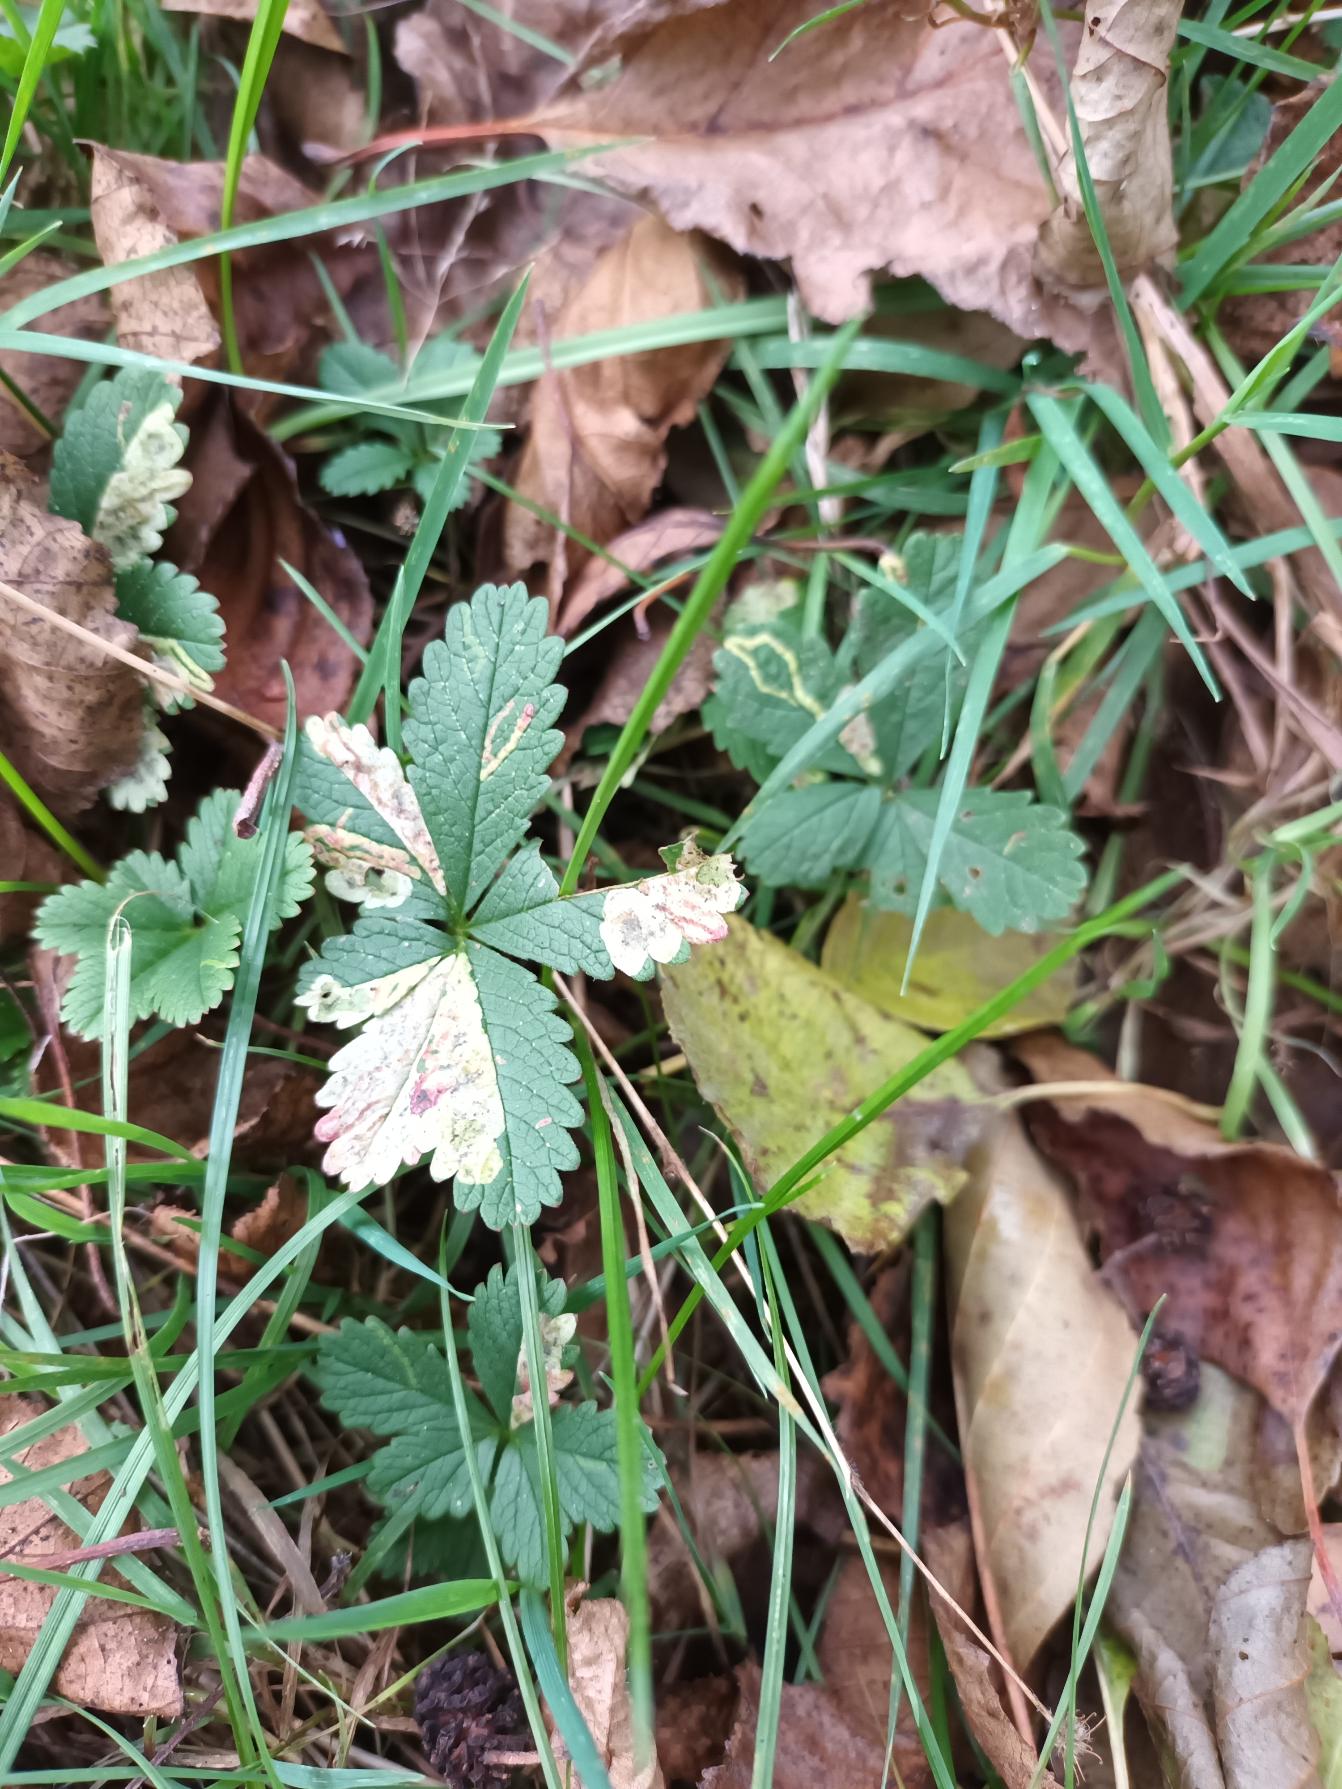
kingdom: Plantae
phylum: Tracheophyta
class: Magnoliopsida
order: Rosales
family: Rosaceae
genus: Potentilla
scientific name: Potentilla reptans
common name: Krybende potentil
